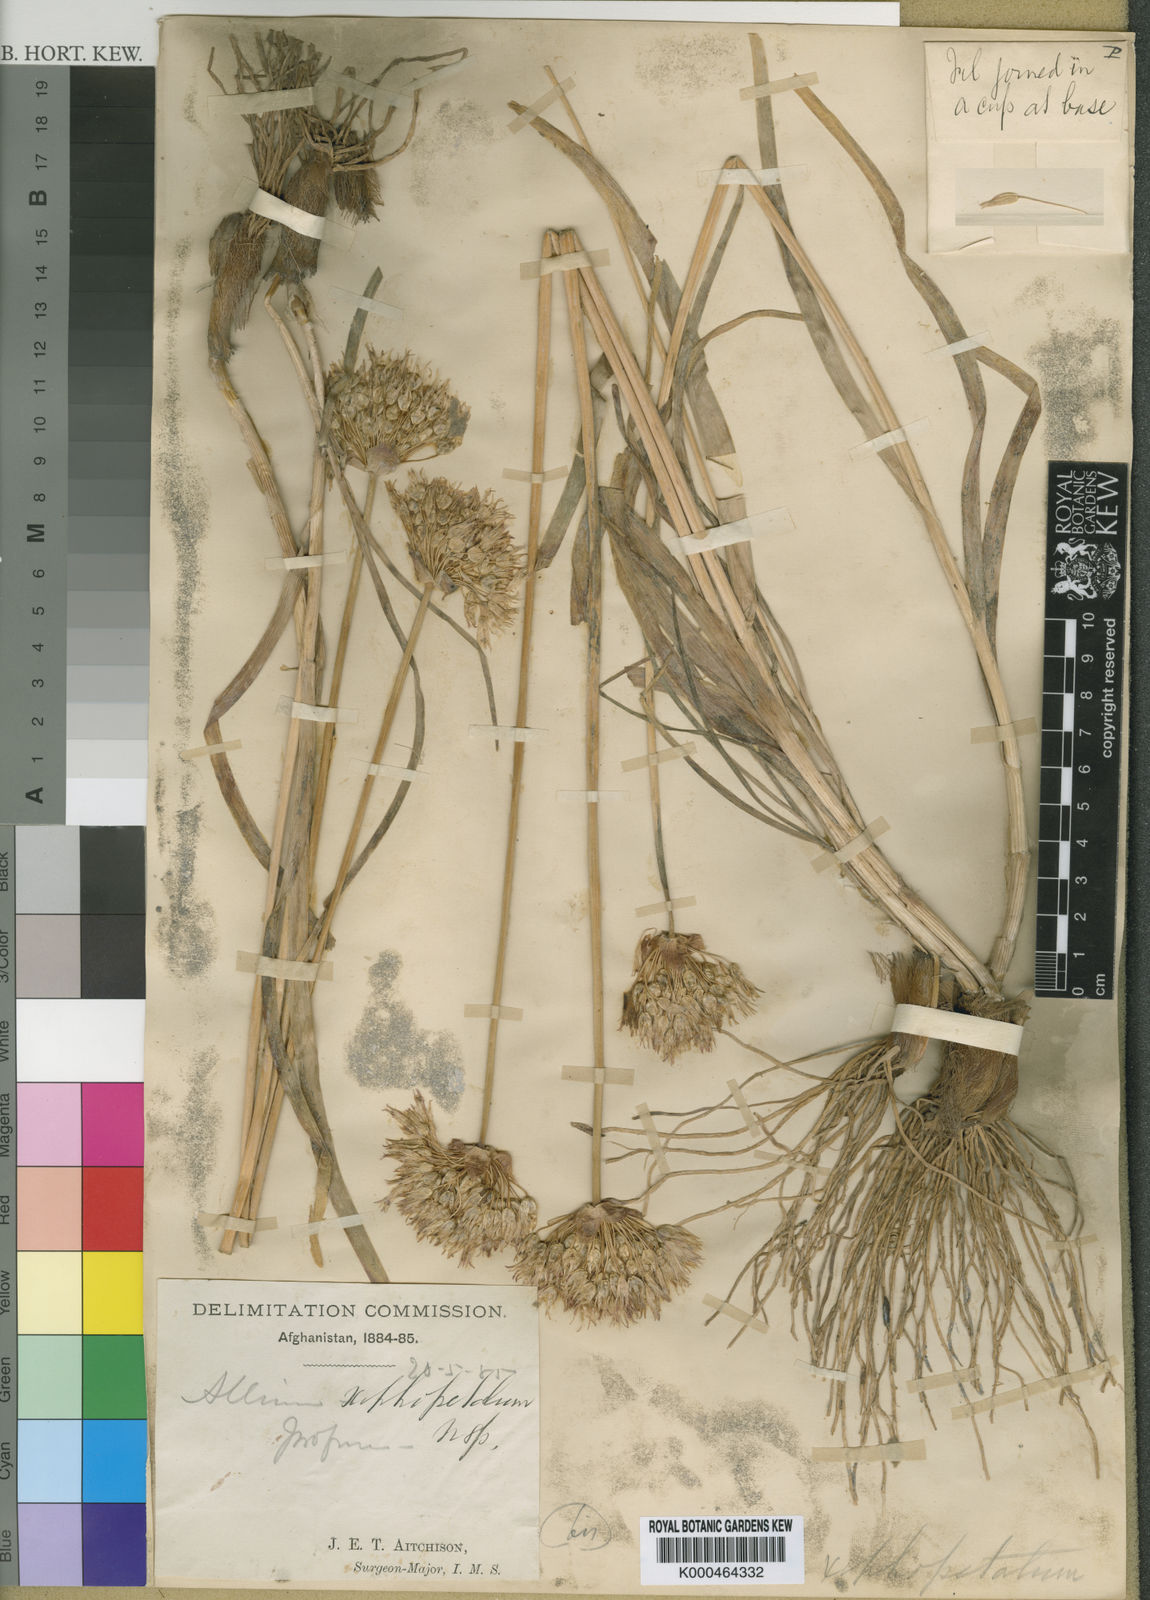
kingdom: Plantae
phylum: Tracheophyta
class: Liliopsida
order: Asparagales
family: Amaryllidaceae
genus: Sternbergia
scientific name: Sternbergia
